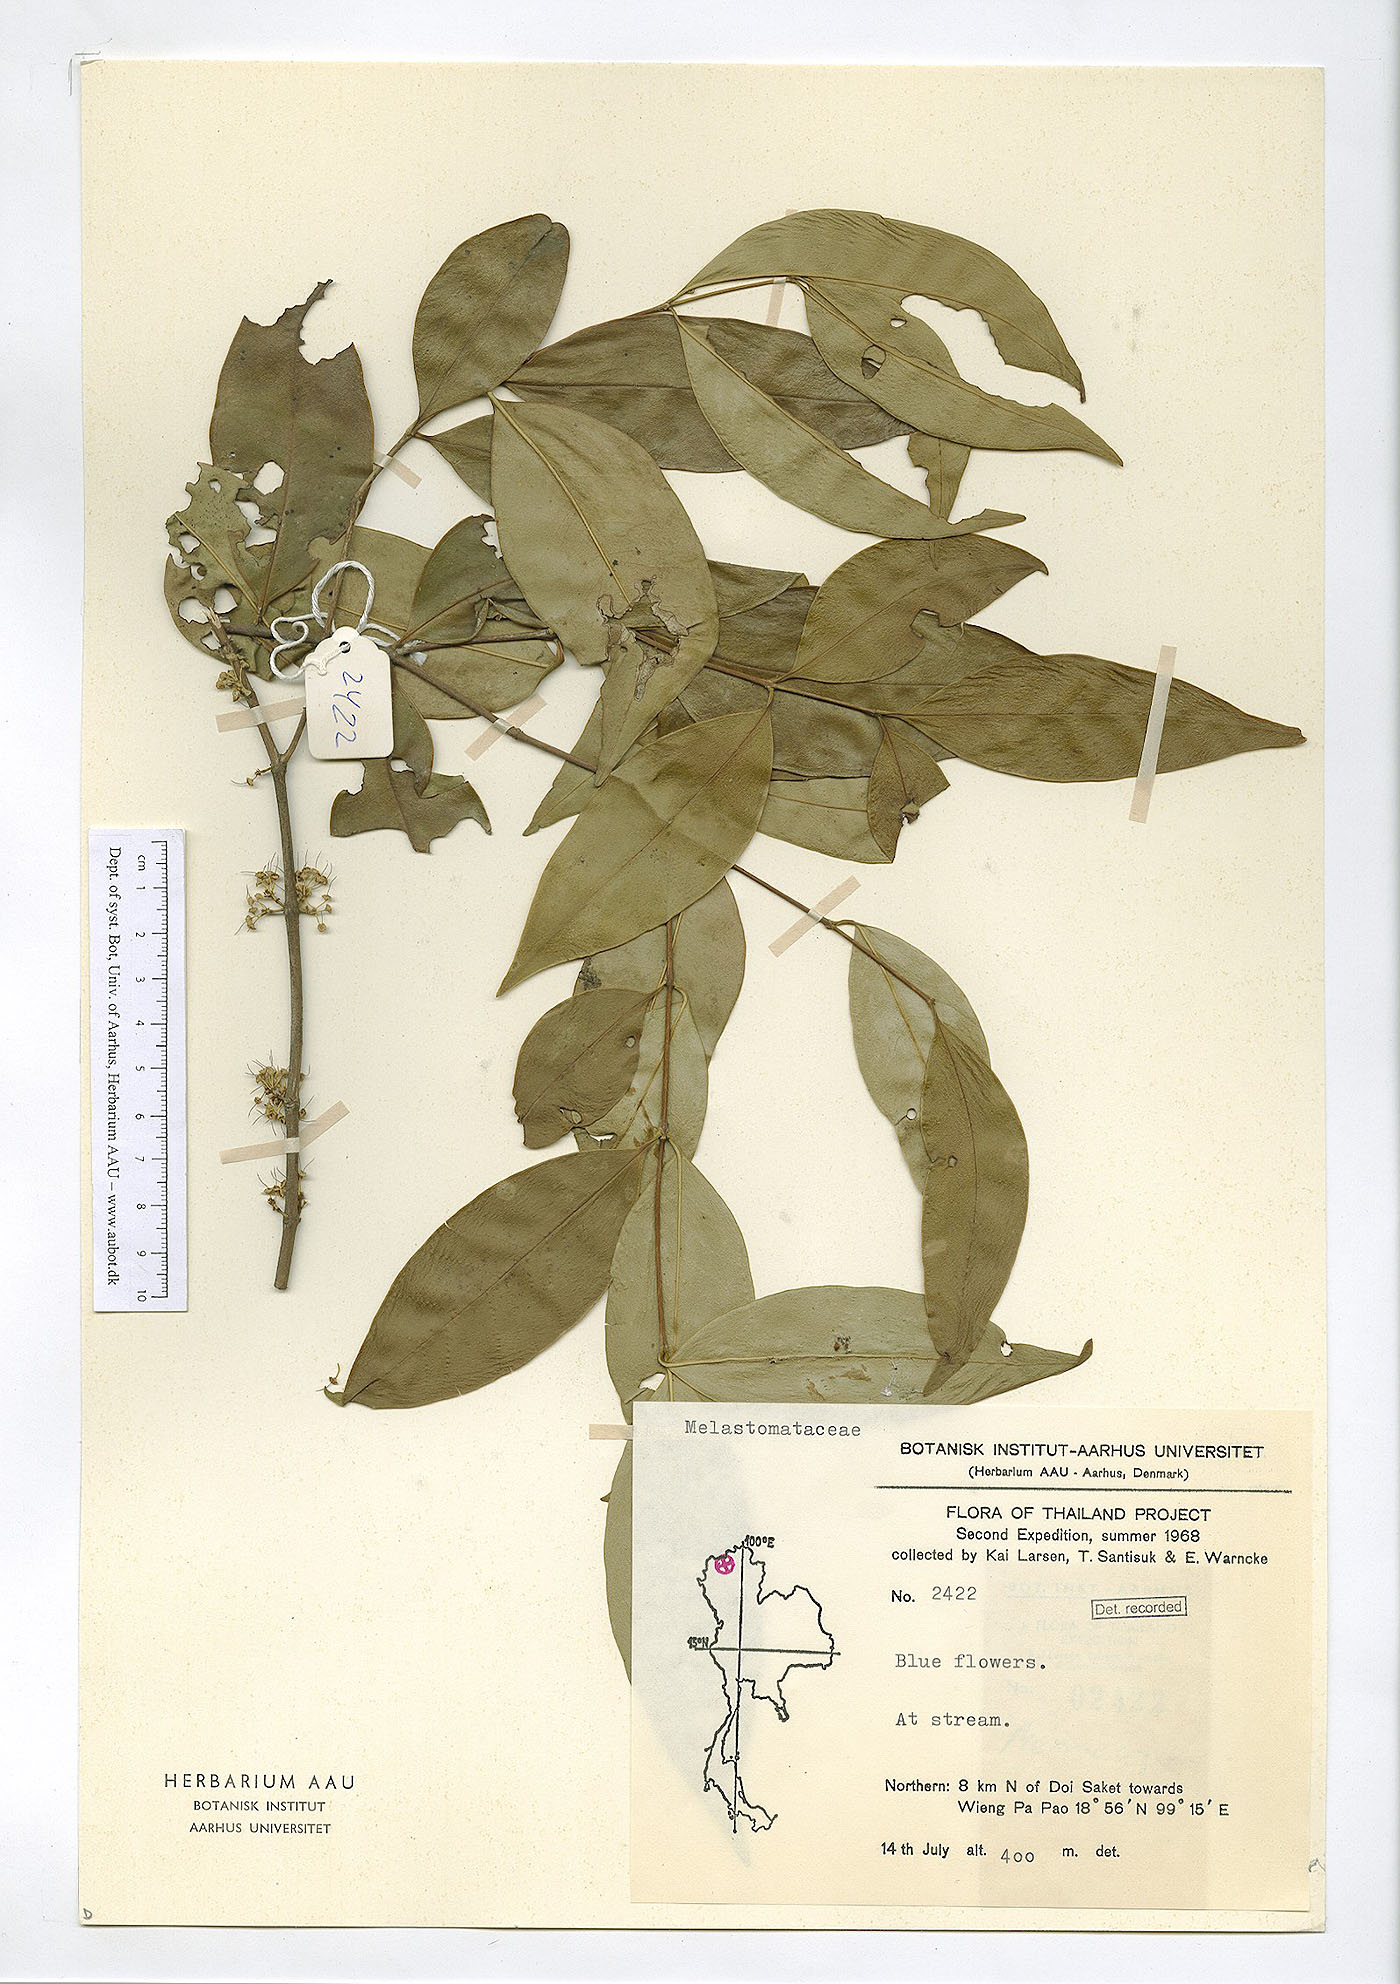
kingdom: Plantae
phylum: Tracheophyta
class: Magnoliopsida
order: Myrtales
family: Melastomataceae
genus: Memecylon
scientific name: Memecylon plebejum
